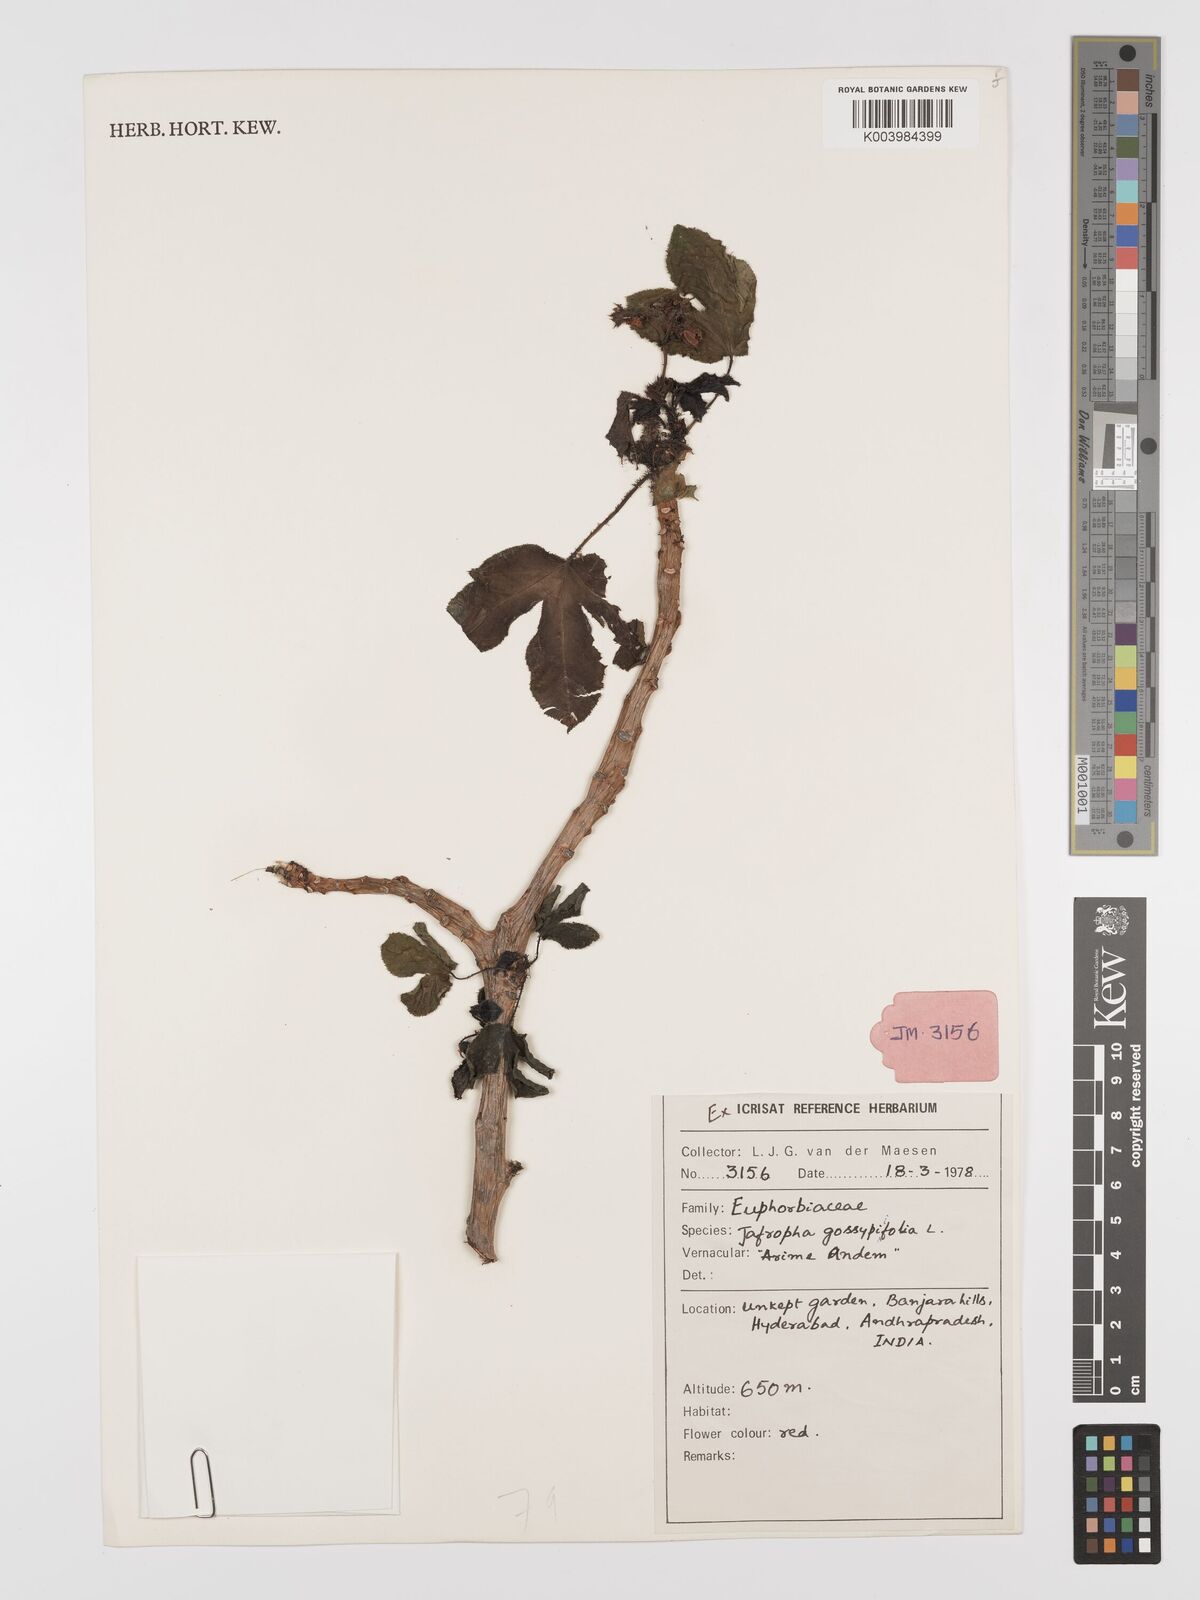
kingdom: Plantae
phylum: Tracheophyta
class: Magnoliopsida
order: Malpighiales
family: Euphorbiaceae
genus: Jatropha
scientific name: Jatropha gossypiifolia
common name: Bellyache bush
